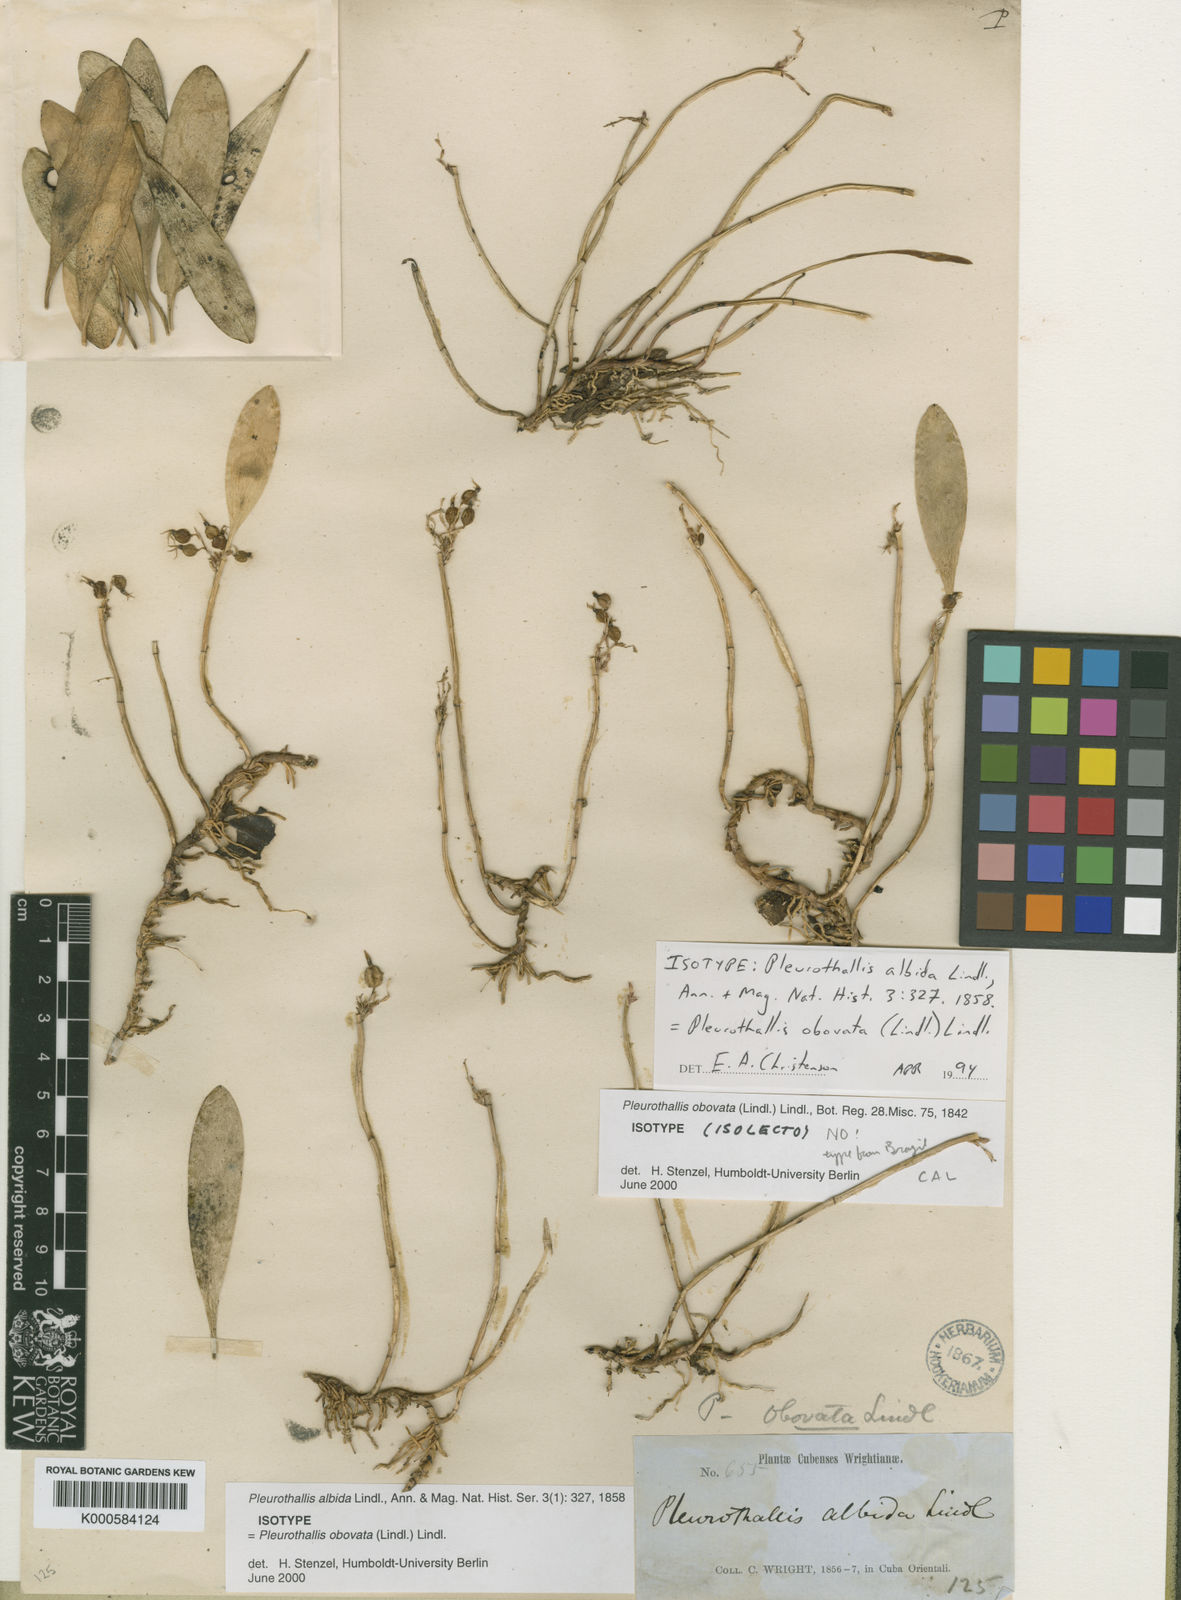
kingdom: Plantae
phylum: Tracheophyta
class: Liliopsida
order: Asparagales
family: Orchidaceae
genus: Anathallis
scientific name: Anathallis obovata
